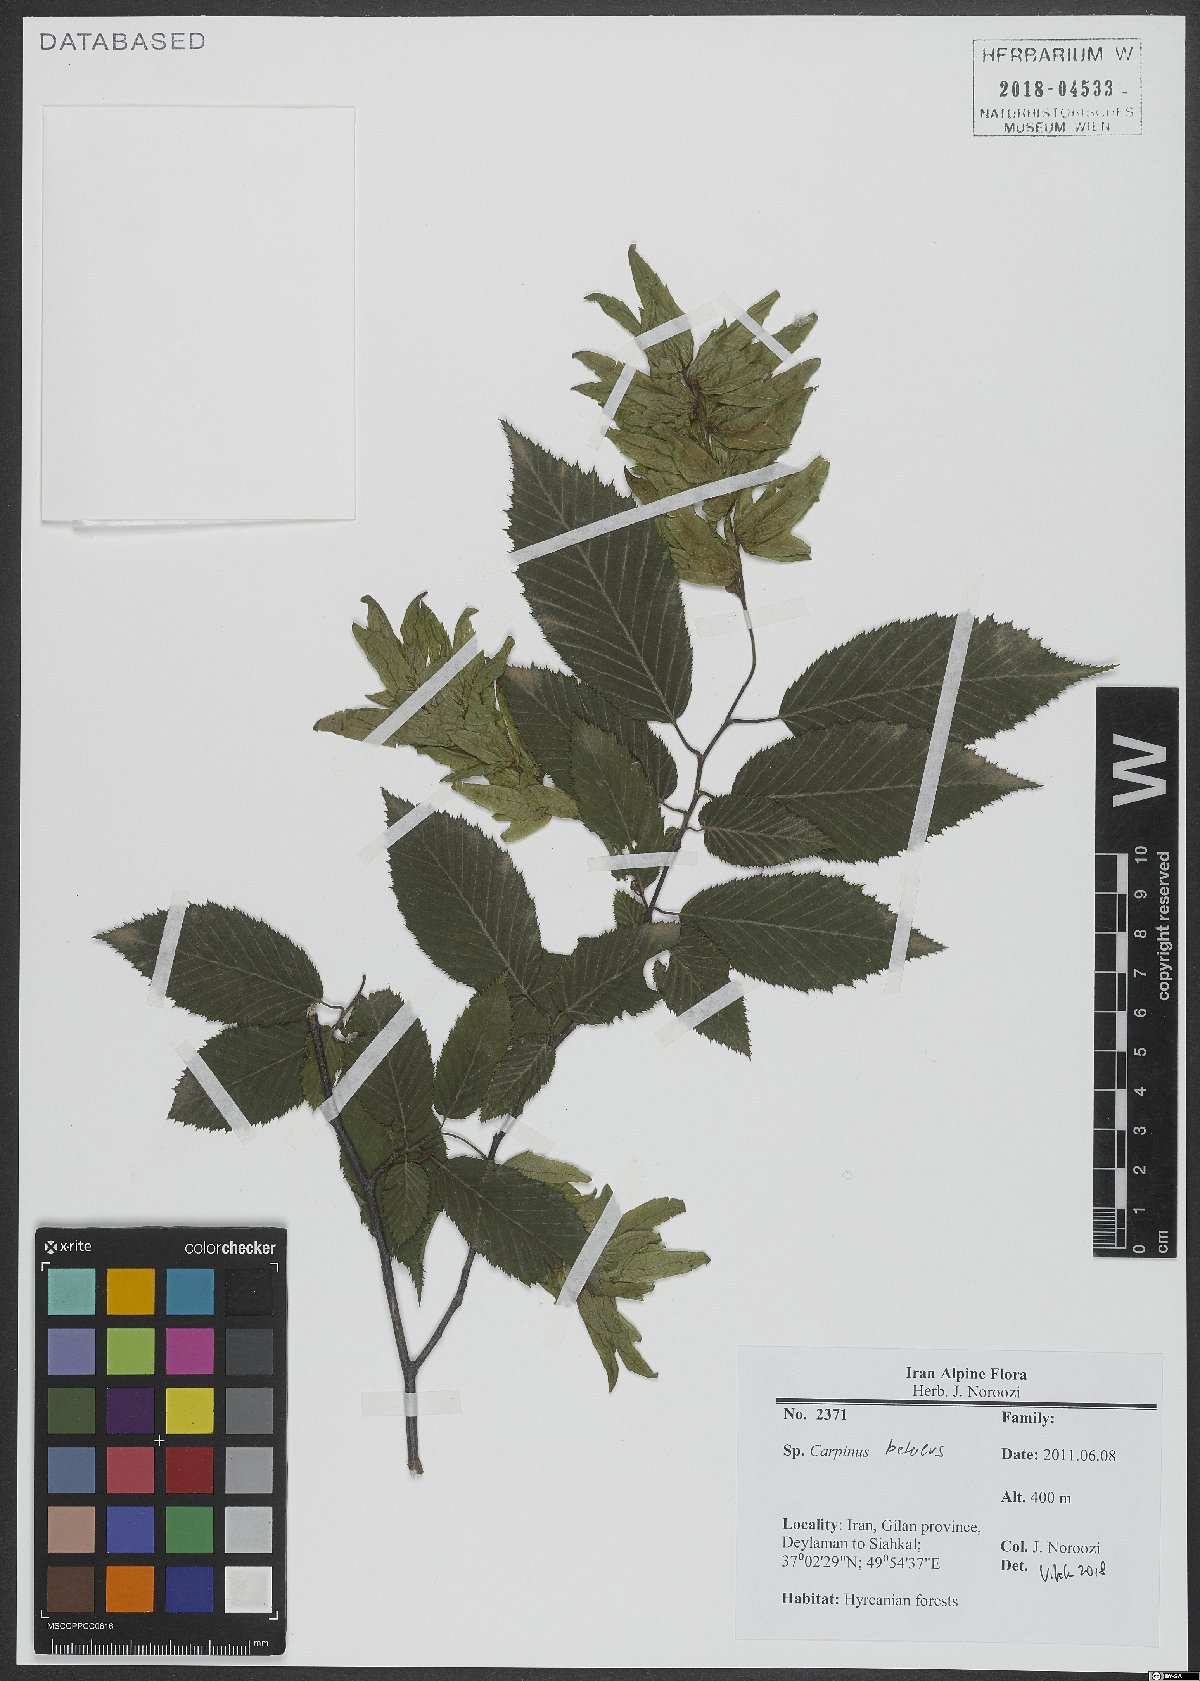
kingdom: Plantae
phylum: Tracheophyta
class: Magnoliopsida
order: Fagales
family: Betulaceae
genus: Carpinus
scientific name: Carpinus betulus
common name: Hornbeam
